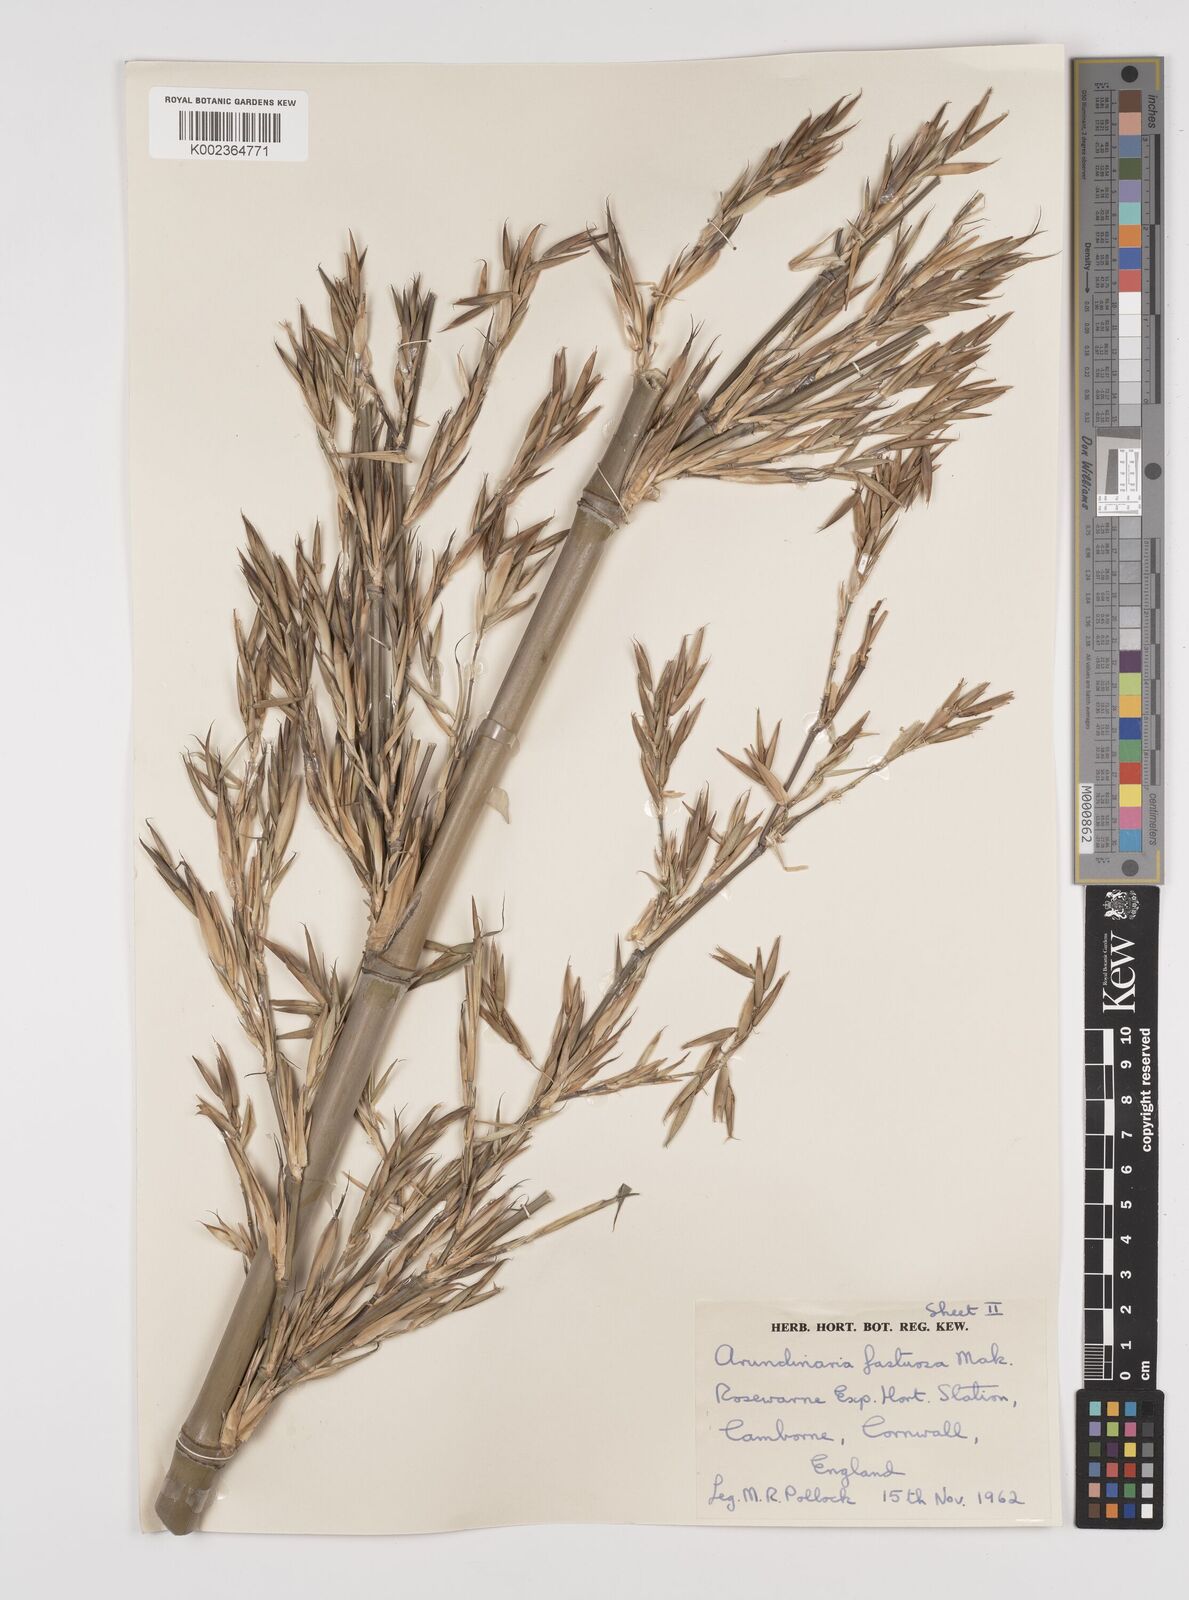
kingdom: Plantae
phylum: Tracheophyta
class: Liliopsida
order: Poales
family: Poaceae
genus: Semiarundinaria
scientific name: Semiarundinaria fastuosa
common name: Narihira bamboo
